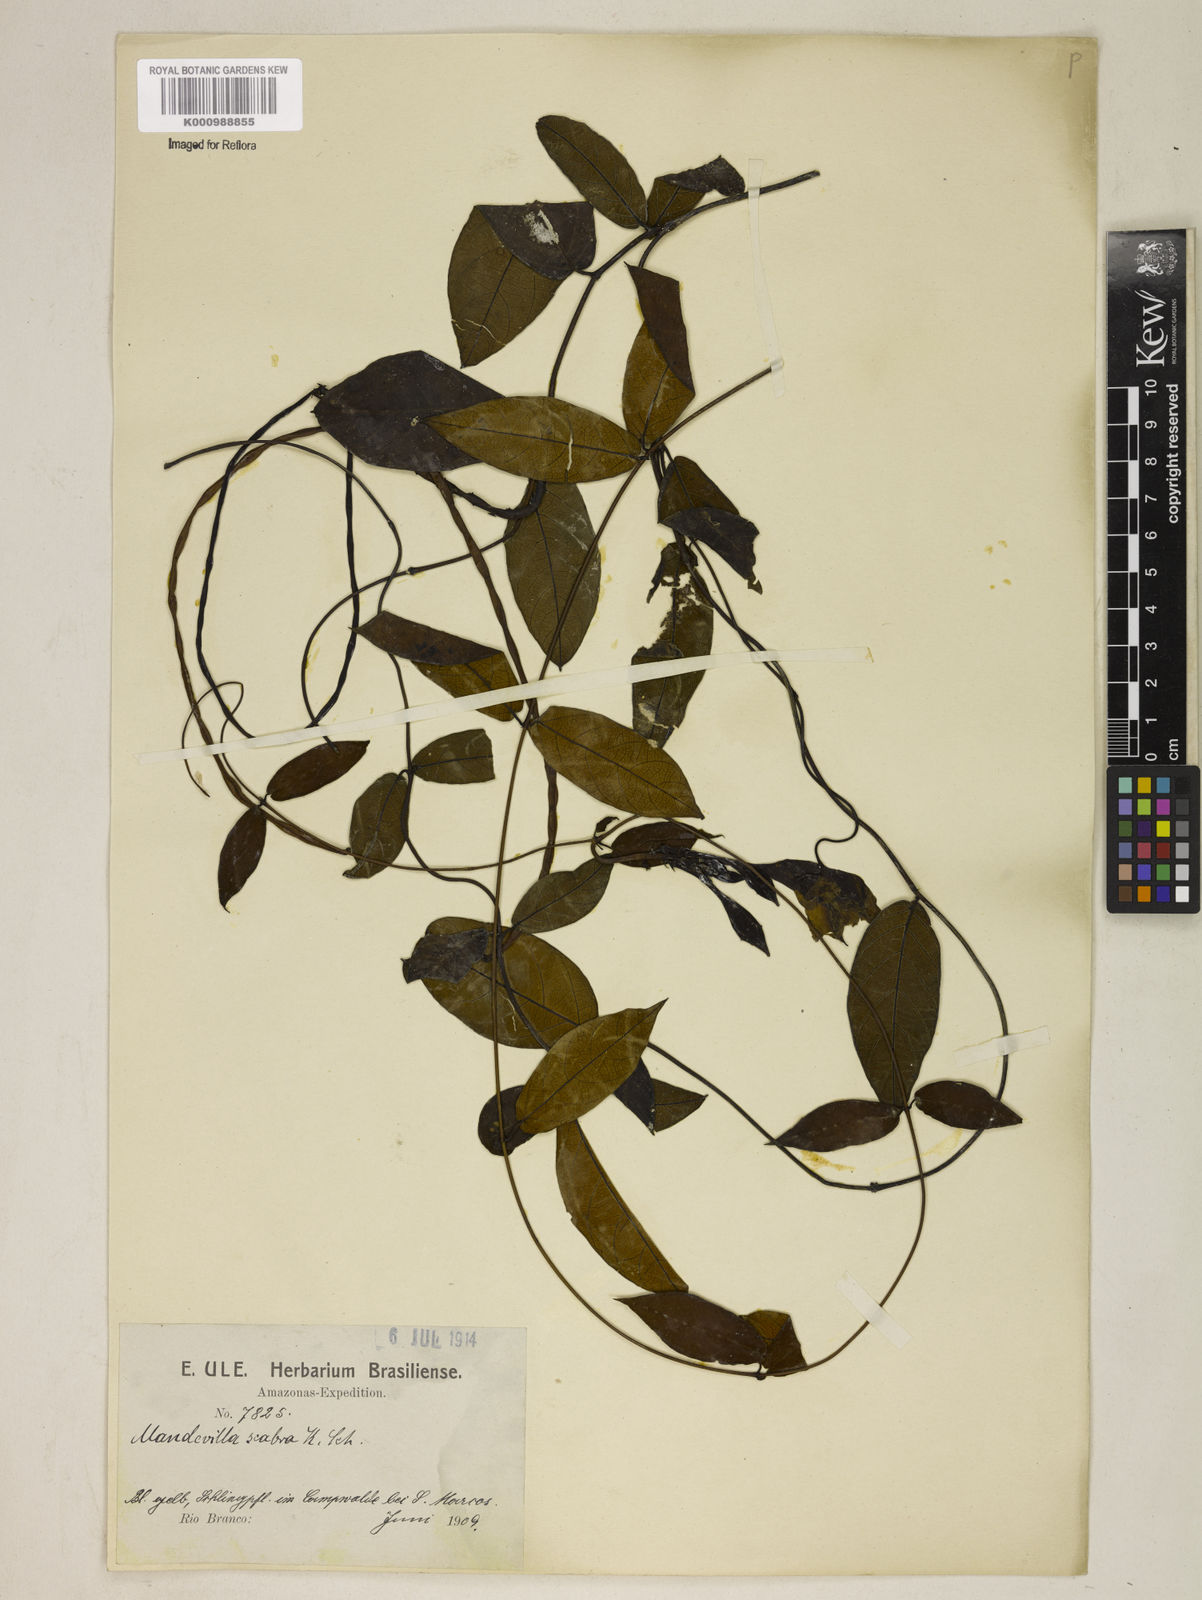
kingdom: Plantae
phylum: Tracheophyta
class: Magnoliopsida
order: Gentianales
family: Apocynaceae
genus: Mandevilla
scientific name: Mandevilla scabra
